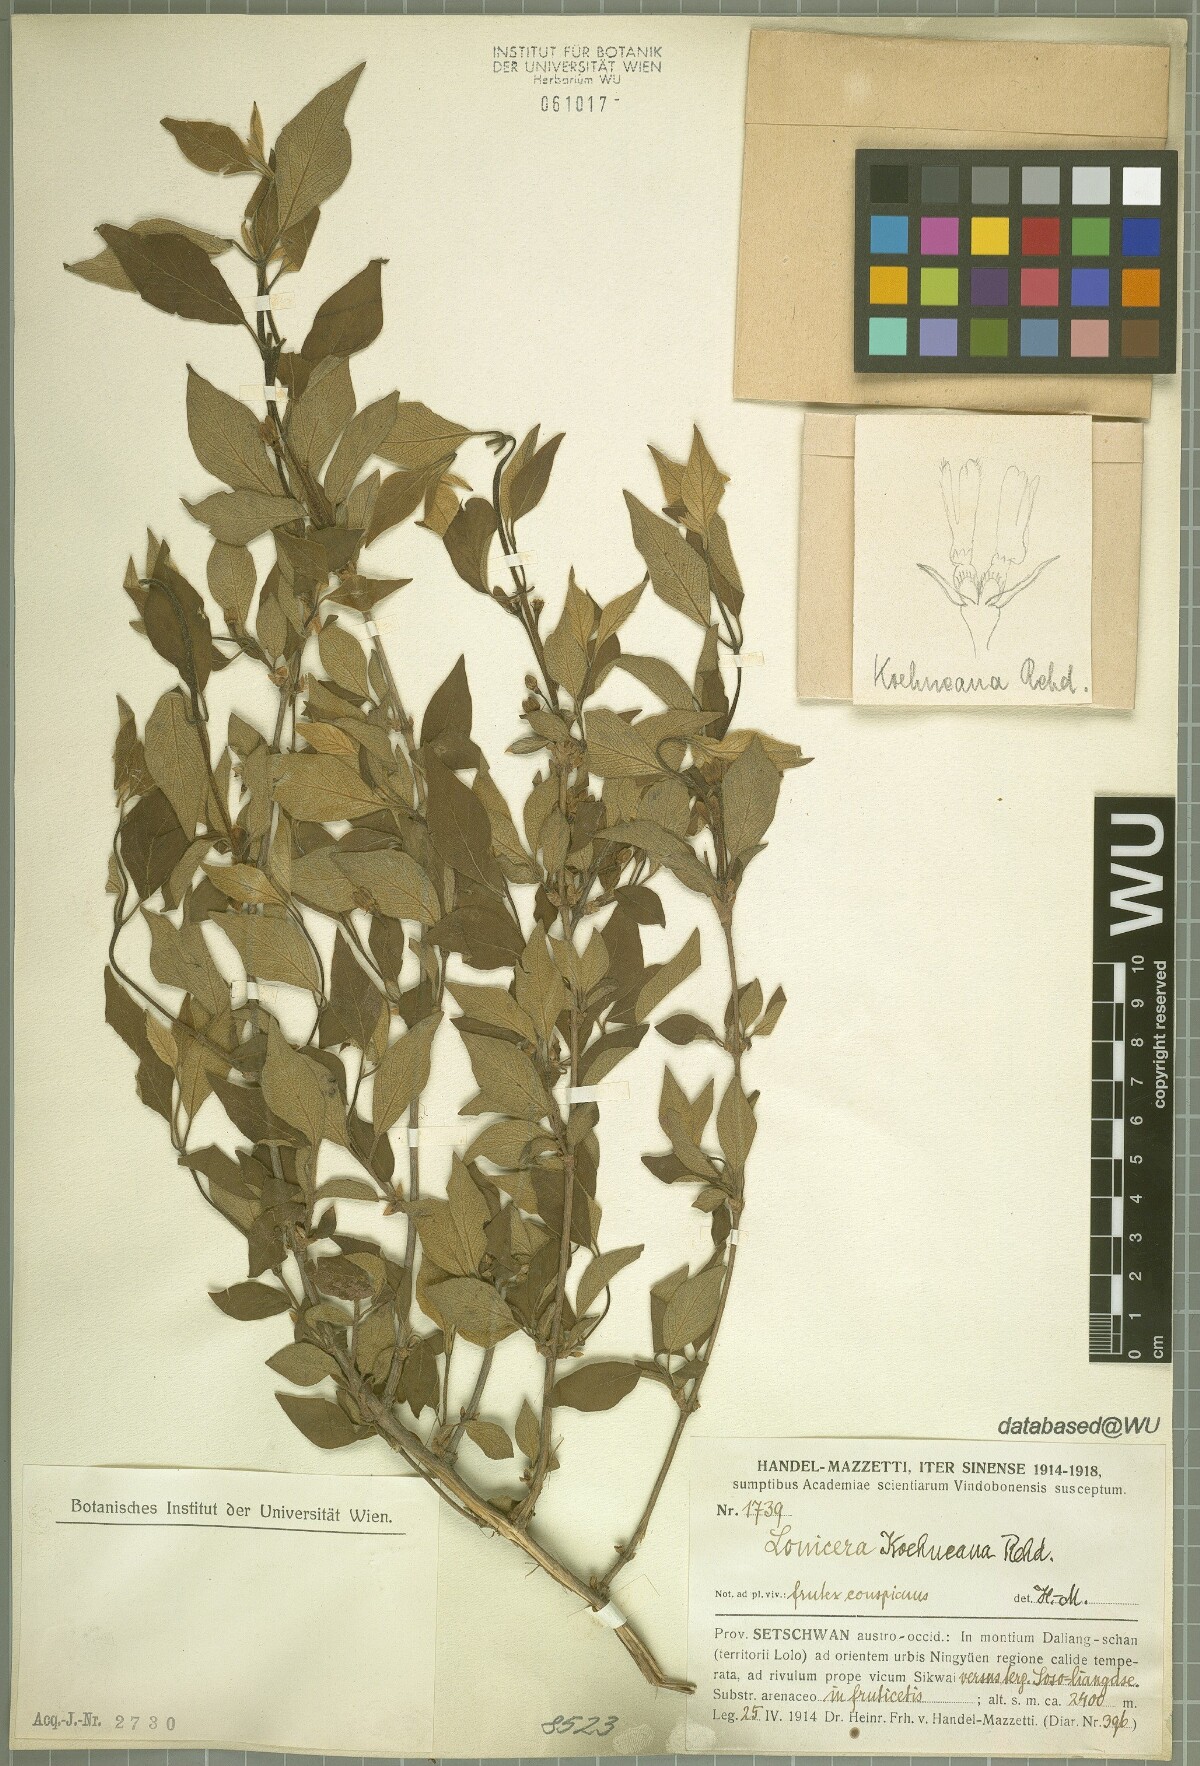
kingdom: Plantae
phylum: Tracheophyta
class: Magnoliopsida
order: Dipsacales
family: Caprifoliaceae
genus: Lonicera
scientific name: Lonicera chrysantha
